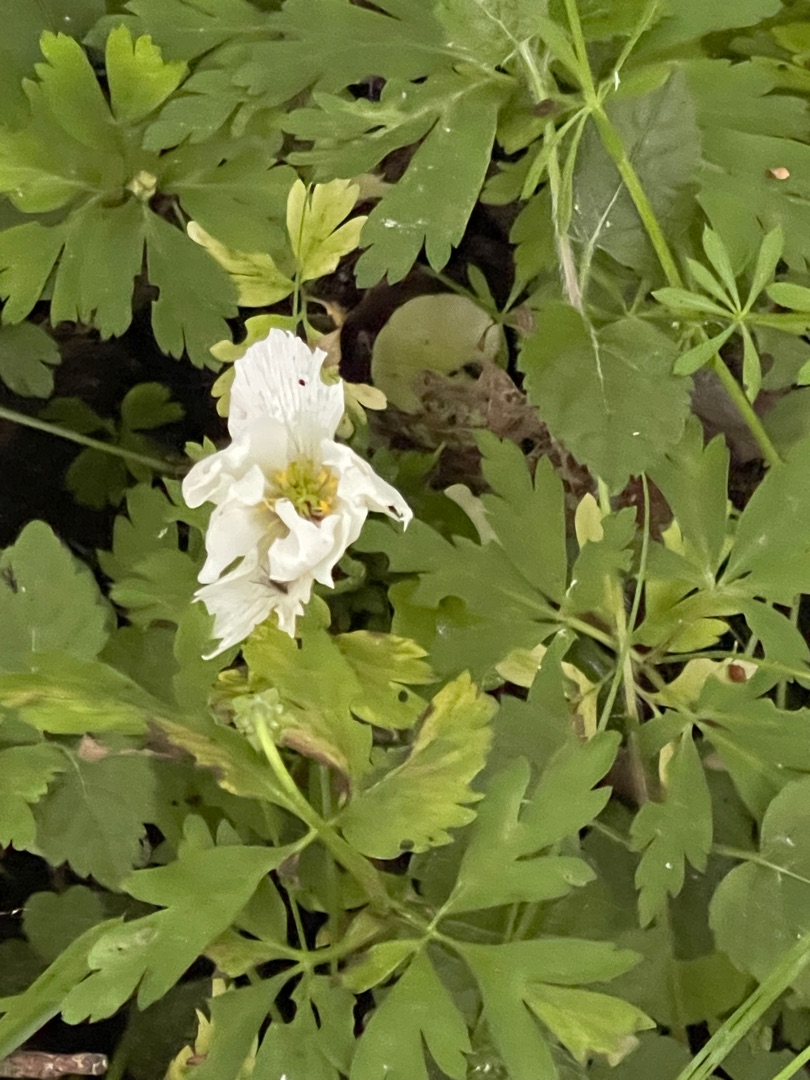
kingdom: Plantae
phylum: Tracheophyta
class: Magnoliopsida
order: Ranunculales
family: Ranunculaceae
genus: Anemone
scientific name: Anemone nemorosa
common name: Hvid anemone
